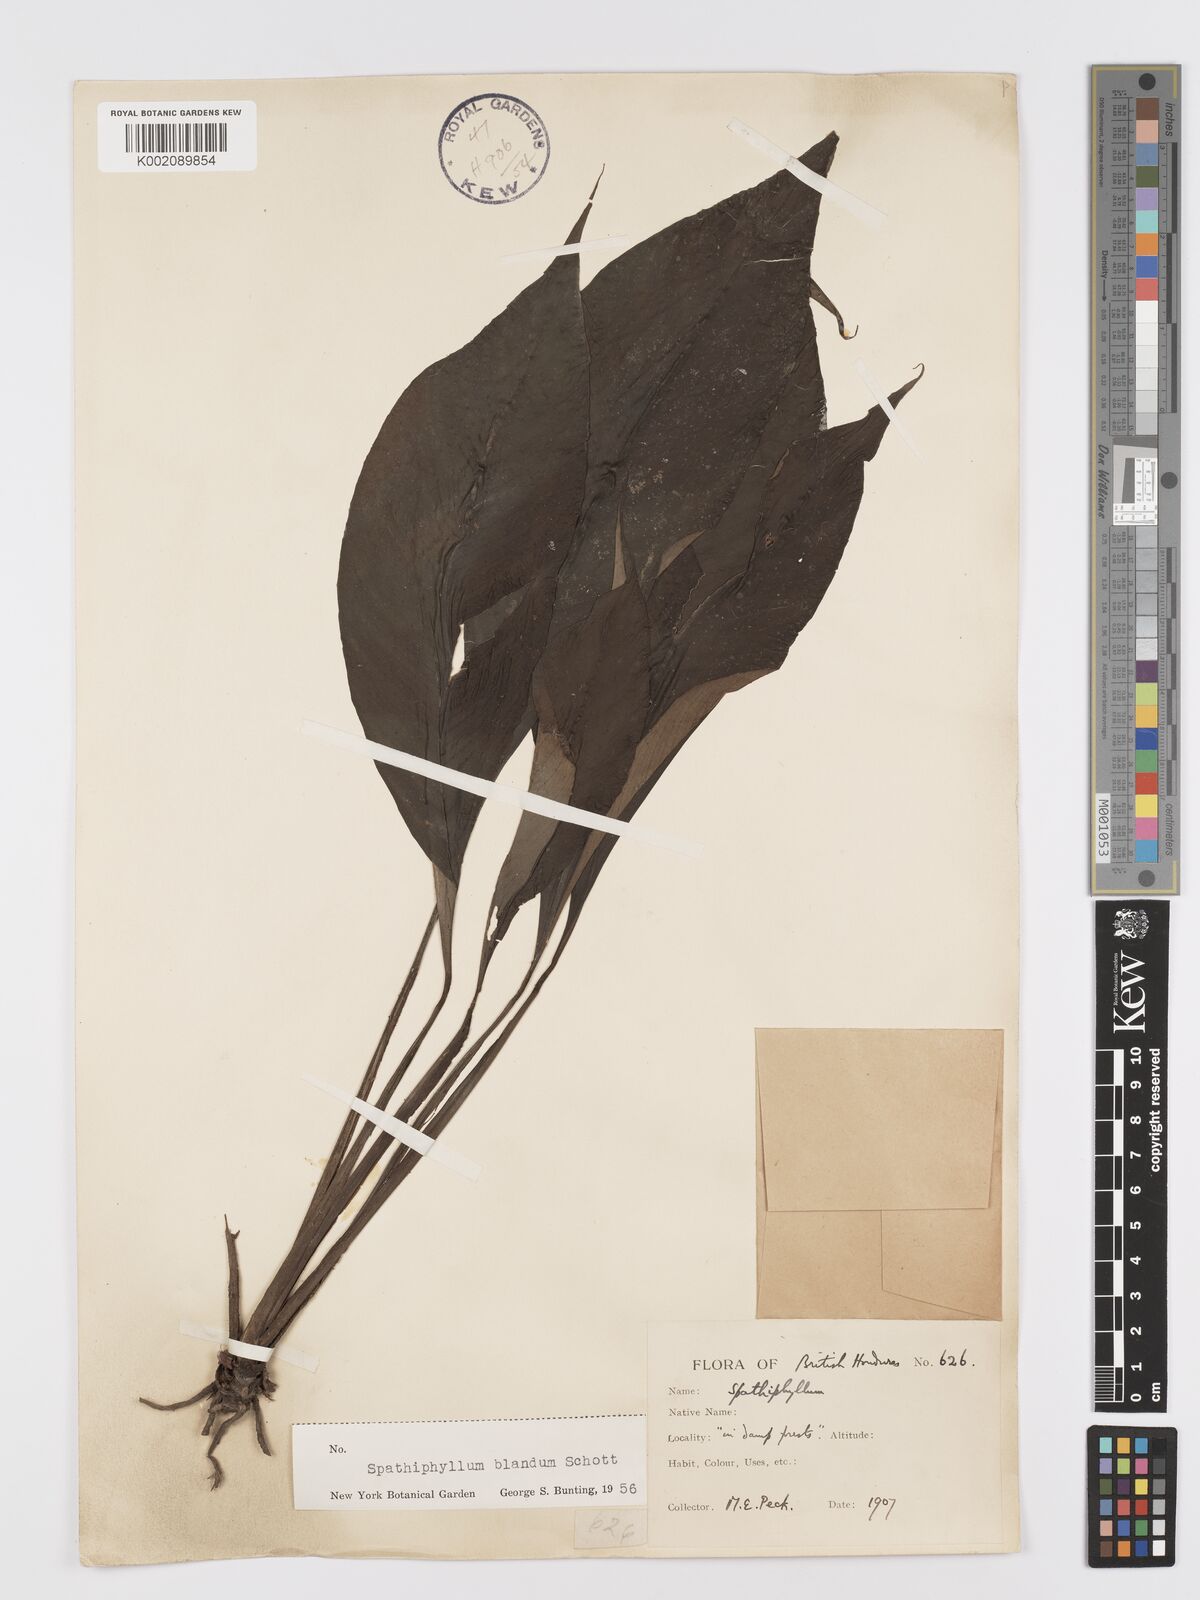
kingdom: Plantae
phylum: Tracheophyta
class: Liliopsida
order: Alismatales
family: Araceae
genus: Spathiphyllum
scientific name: Spathiphyllum blandum
